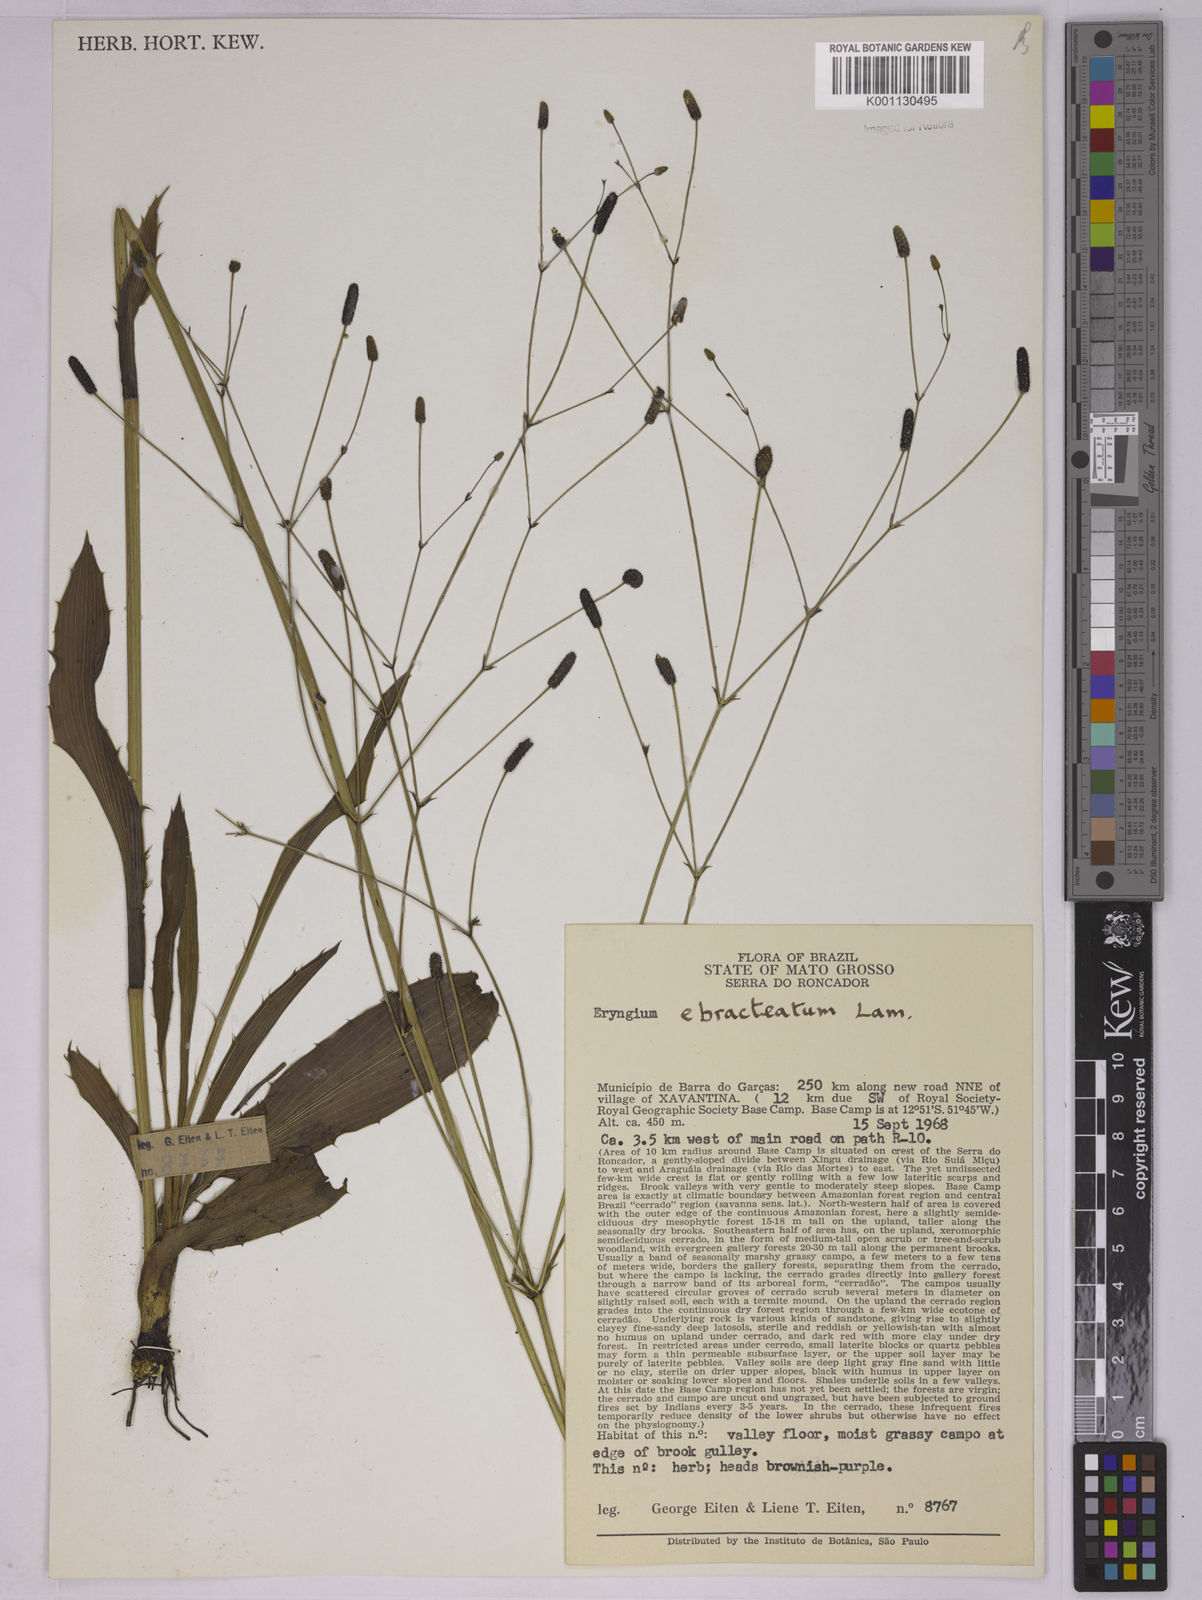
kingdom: Plantae
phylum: Tracheophyta
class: Magnoliopsida
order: Apiales
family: Apiaceae
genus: Eryngium
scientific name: Eryngium ebracteatum
